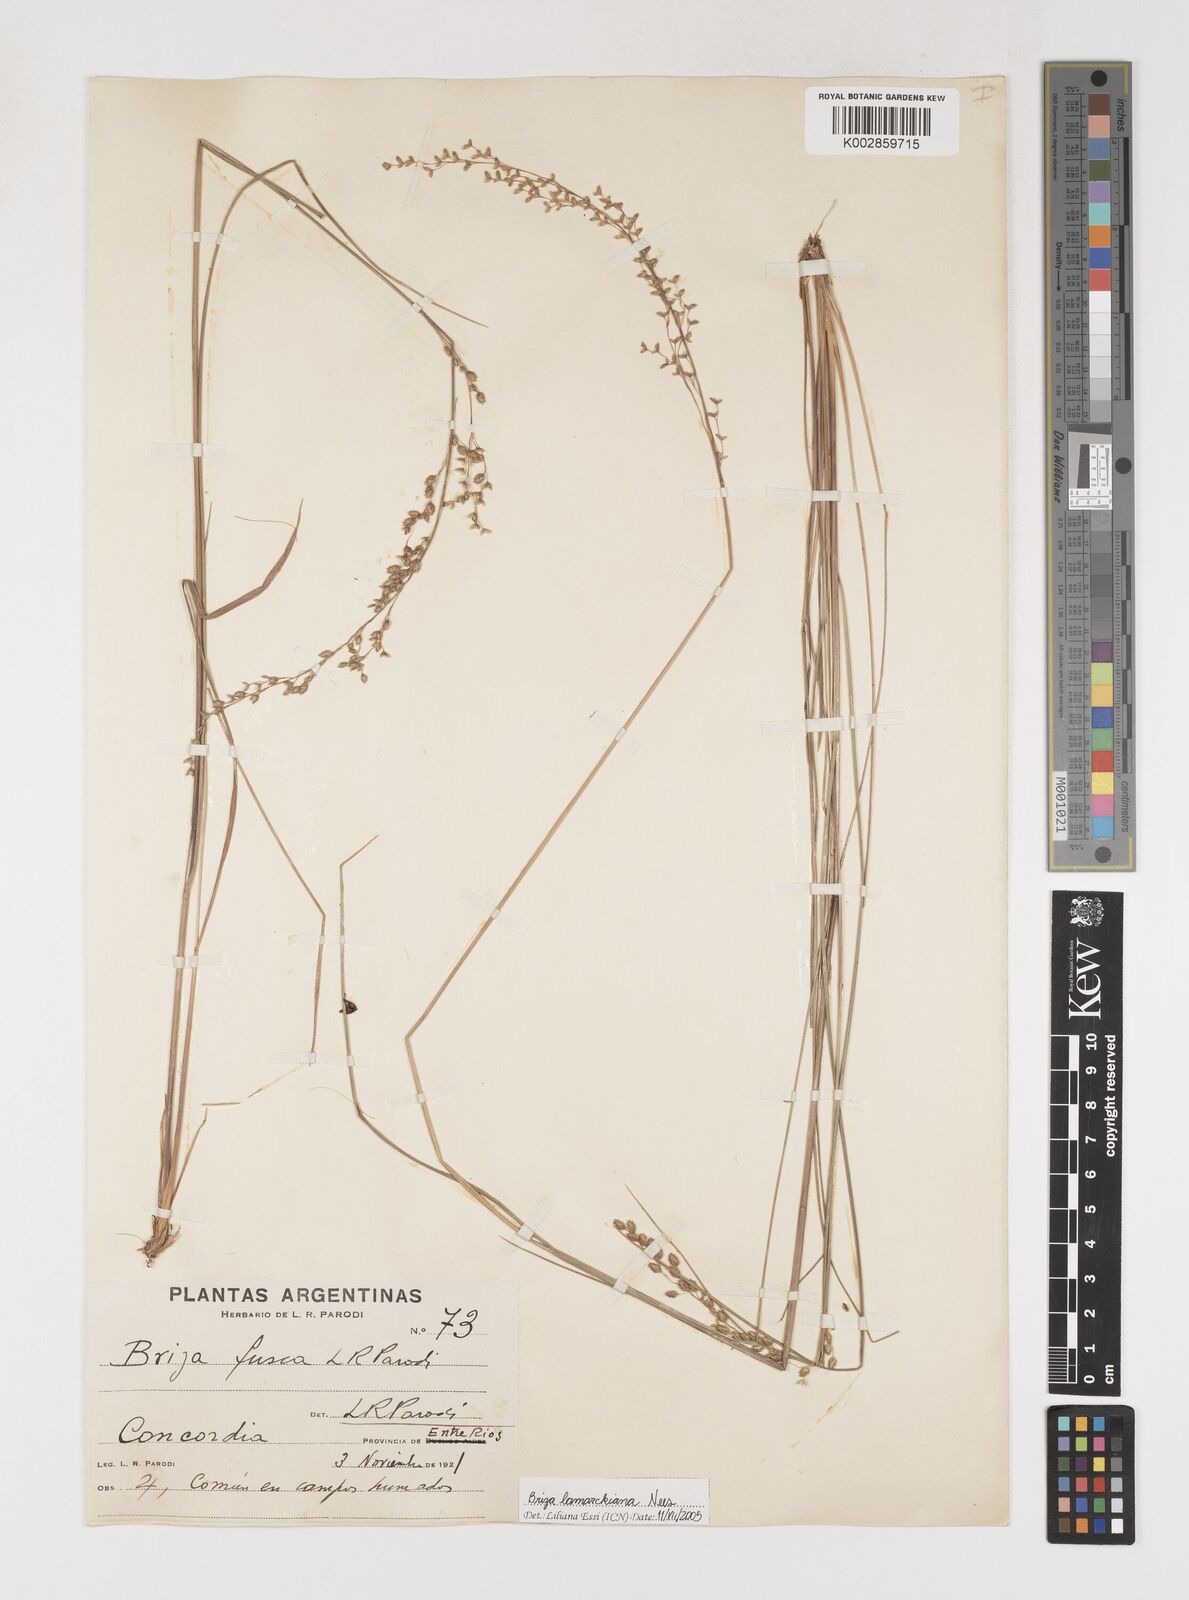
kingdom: Plantae
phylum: Tracheophyta
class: Liliopsida
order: Poales
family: Poaceae
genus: Chascolytrum
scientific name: Chascolytrum lamarckianum
